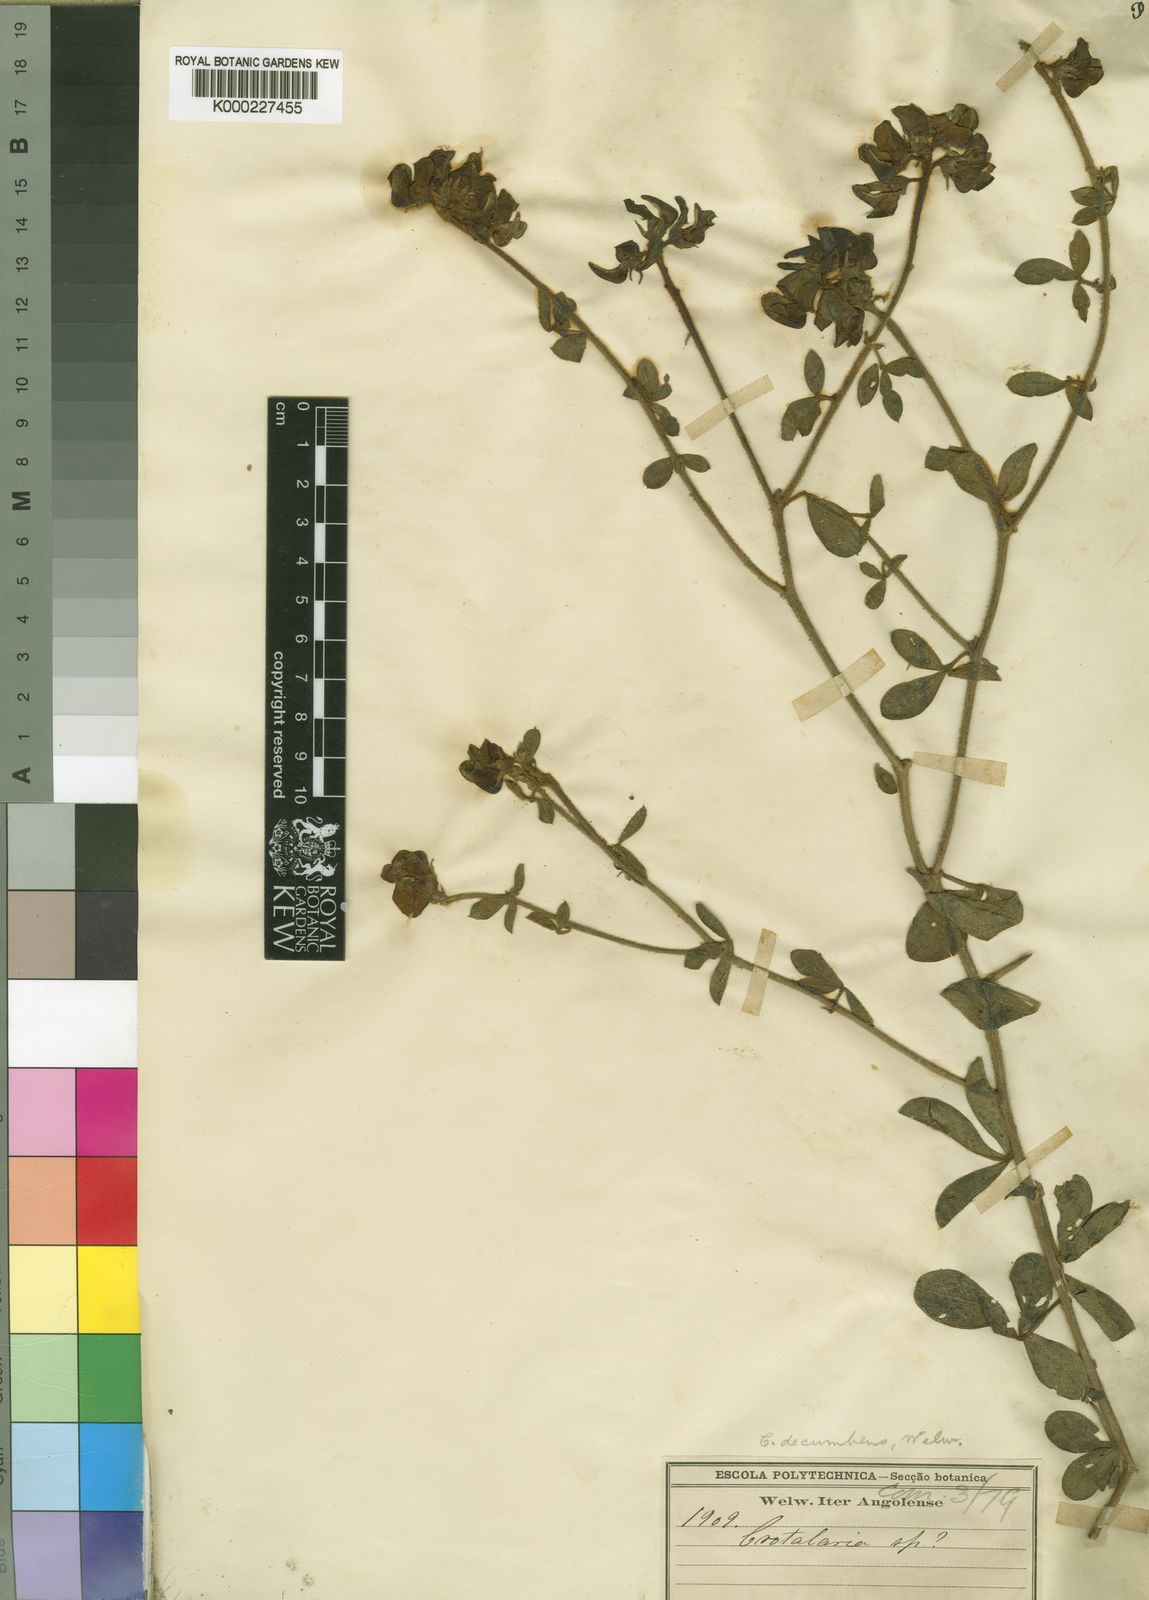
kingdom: Plantae
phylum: Tracheophyta
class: Magnoliopsida
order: Fabales
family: Fabaceae
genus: Crotalaria
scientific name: Crotalaria recumbens
